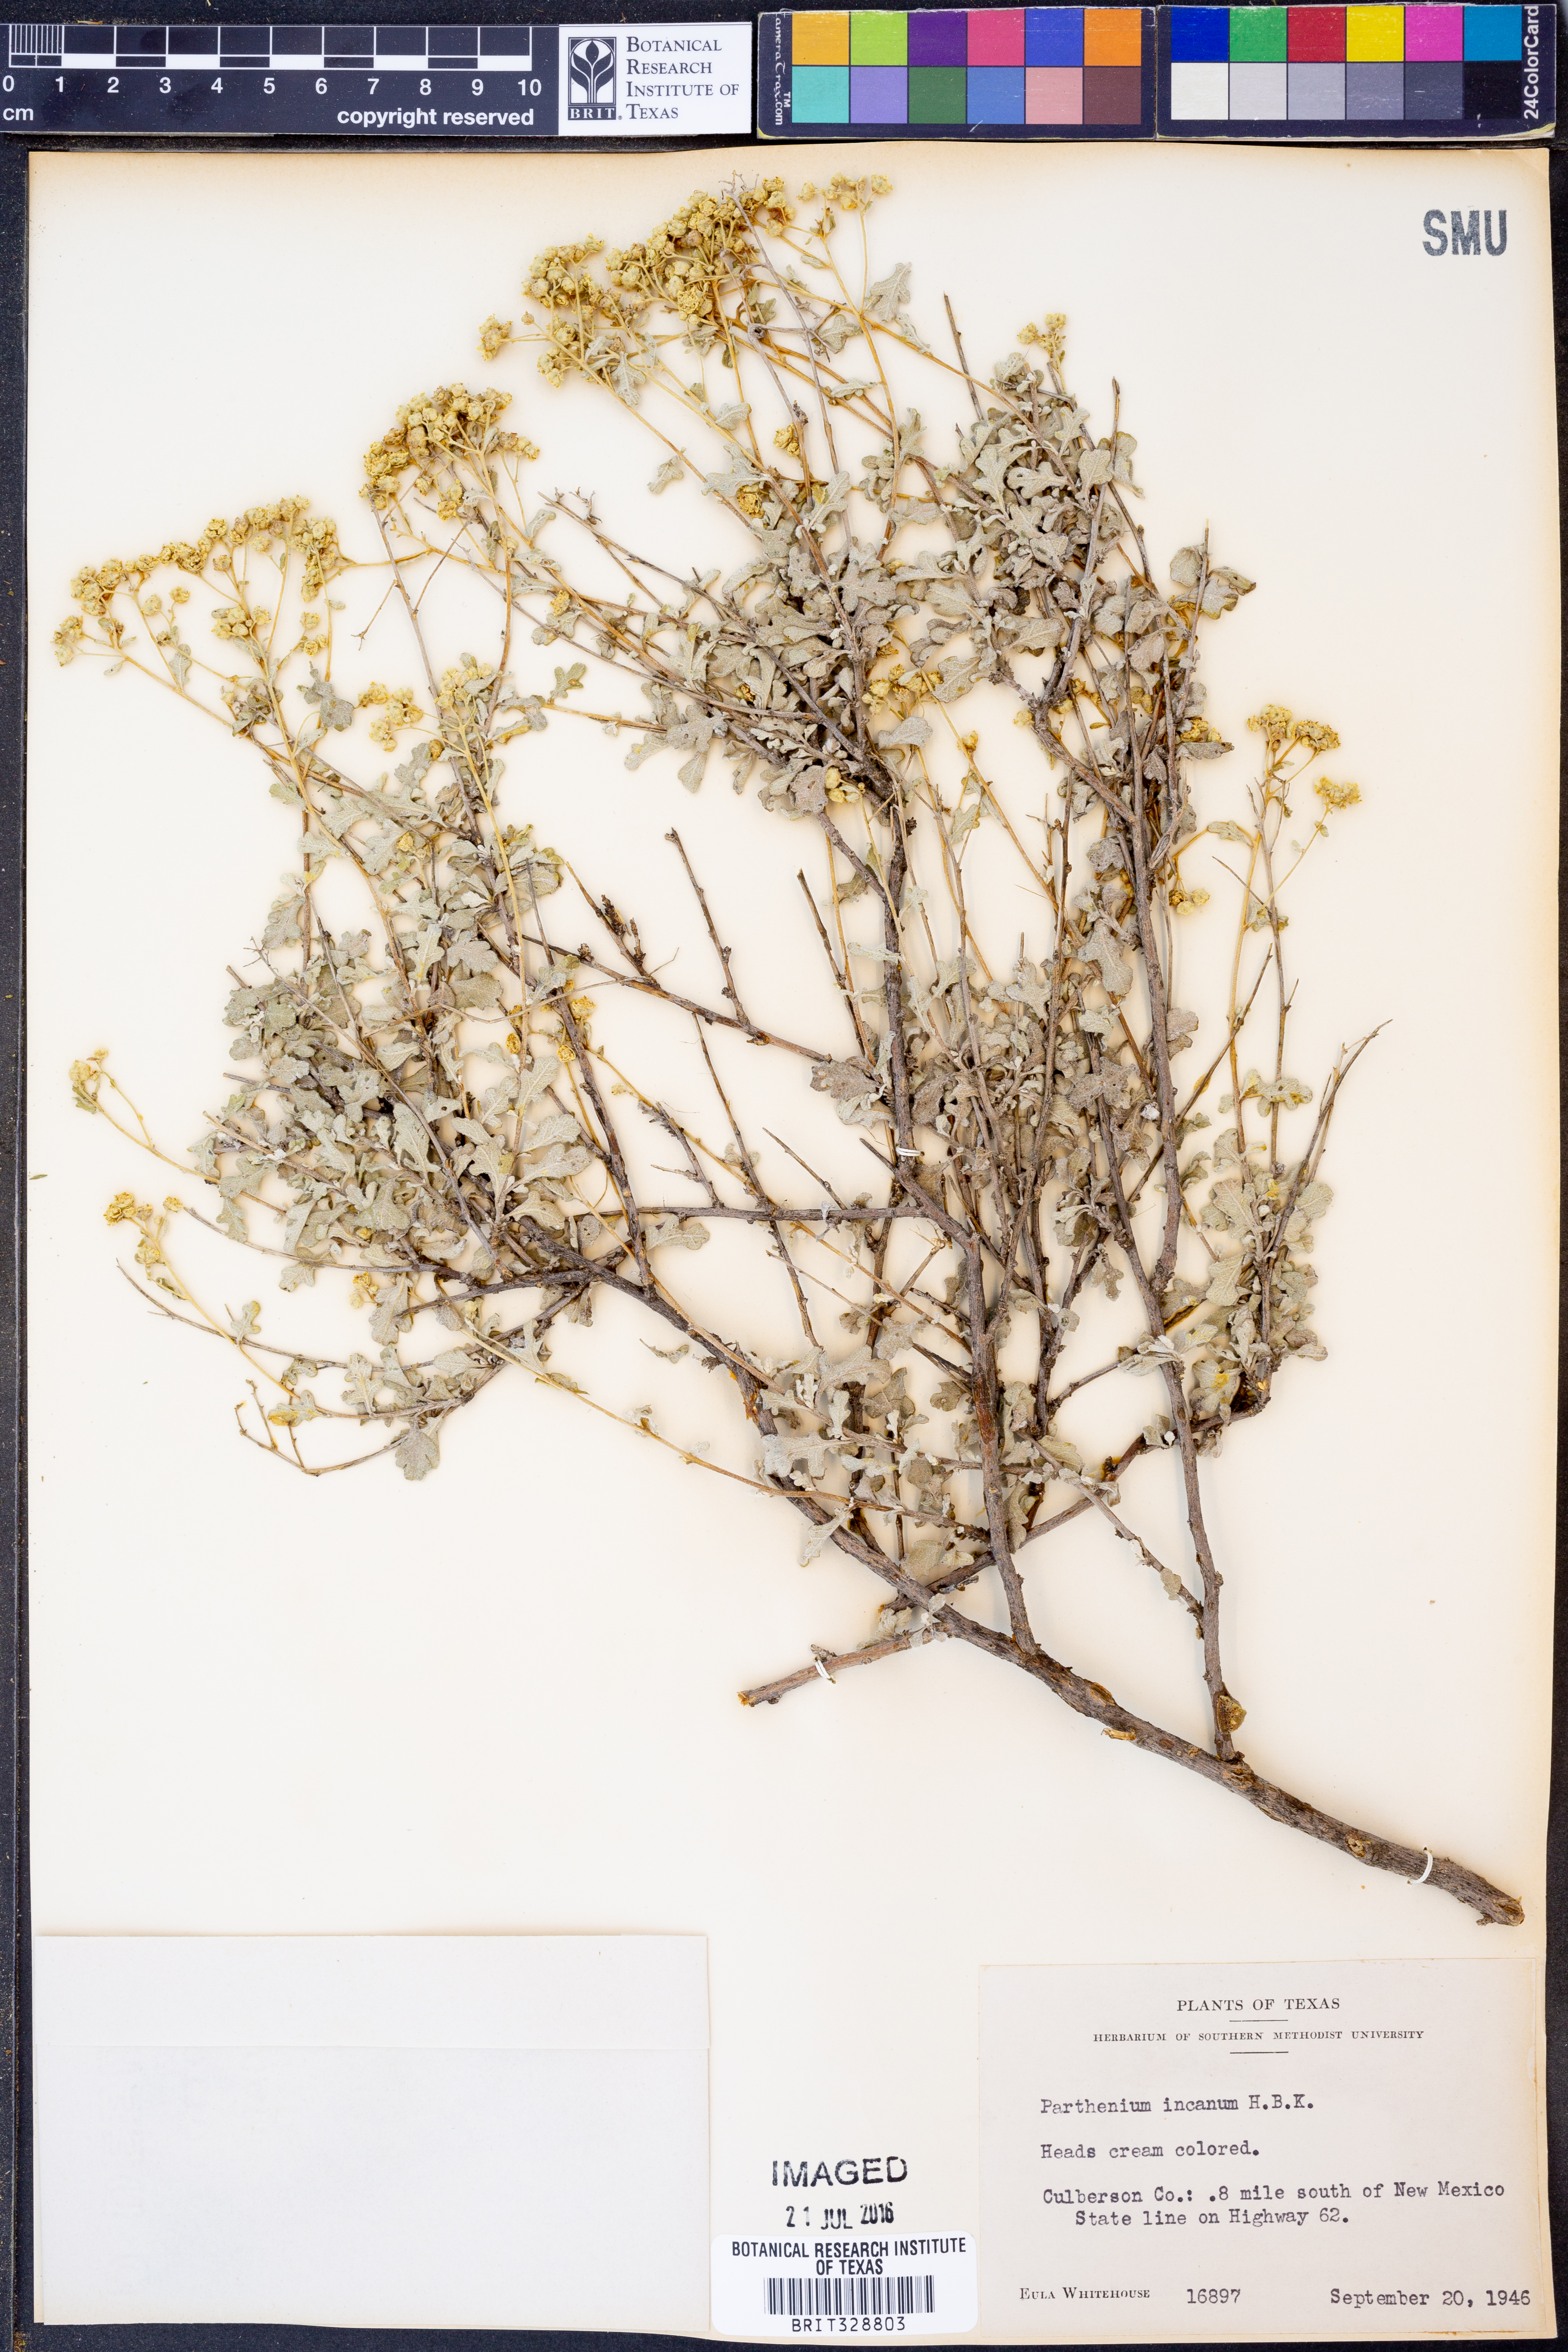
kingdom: Plantae
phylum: Tracheophyta
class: Magnoliopsida
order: Asterales
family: Asteraceae
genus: Parthenium
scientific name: Parthenium incanum
